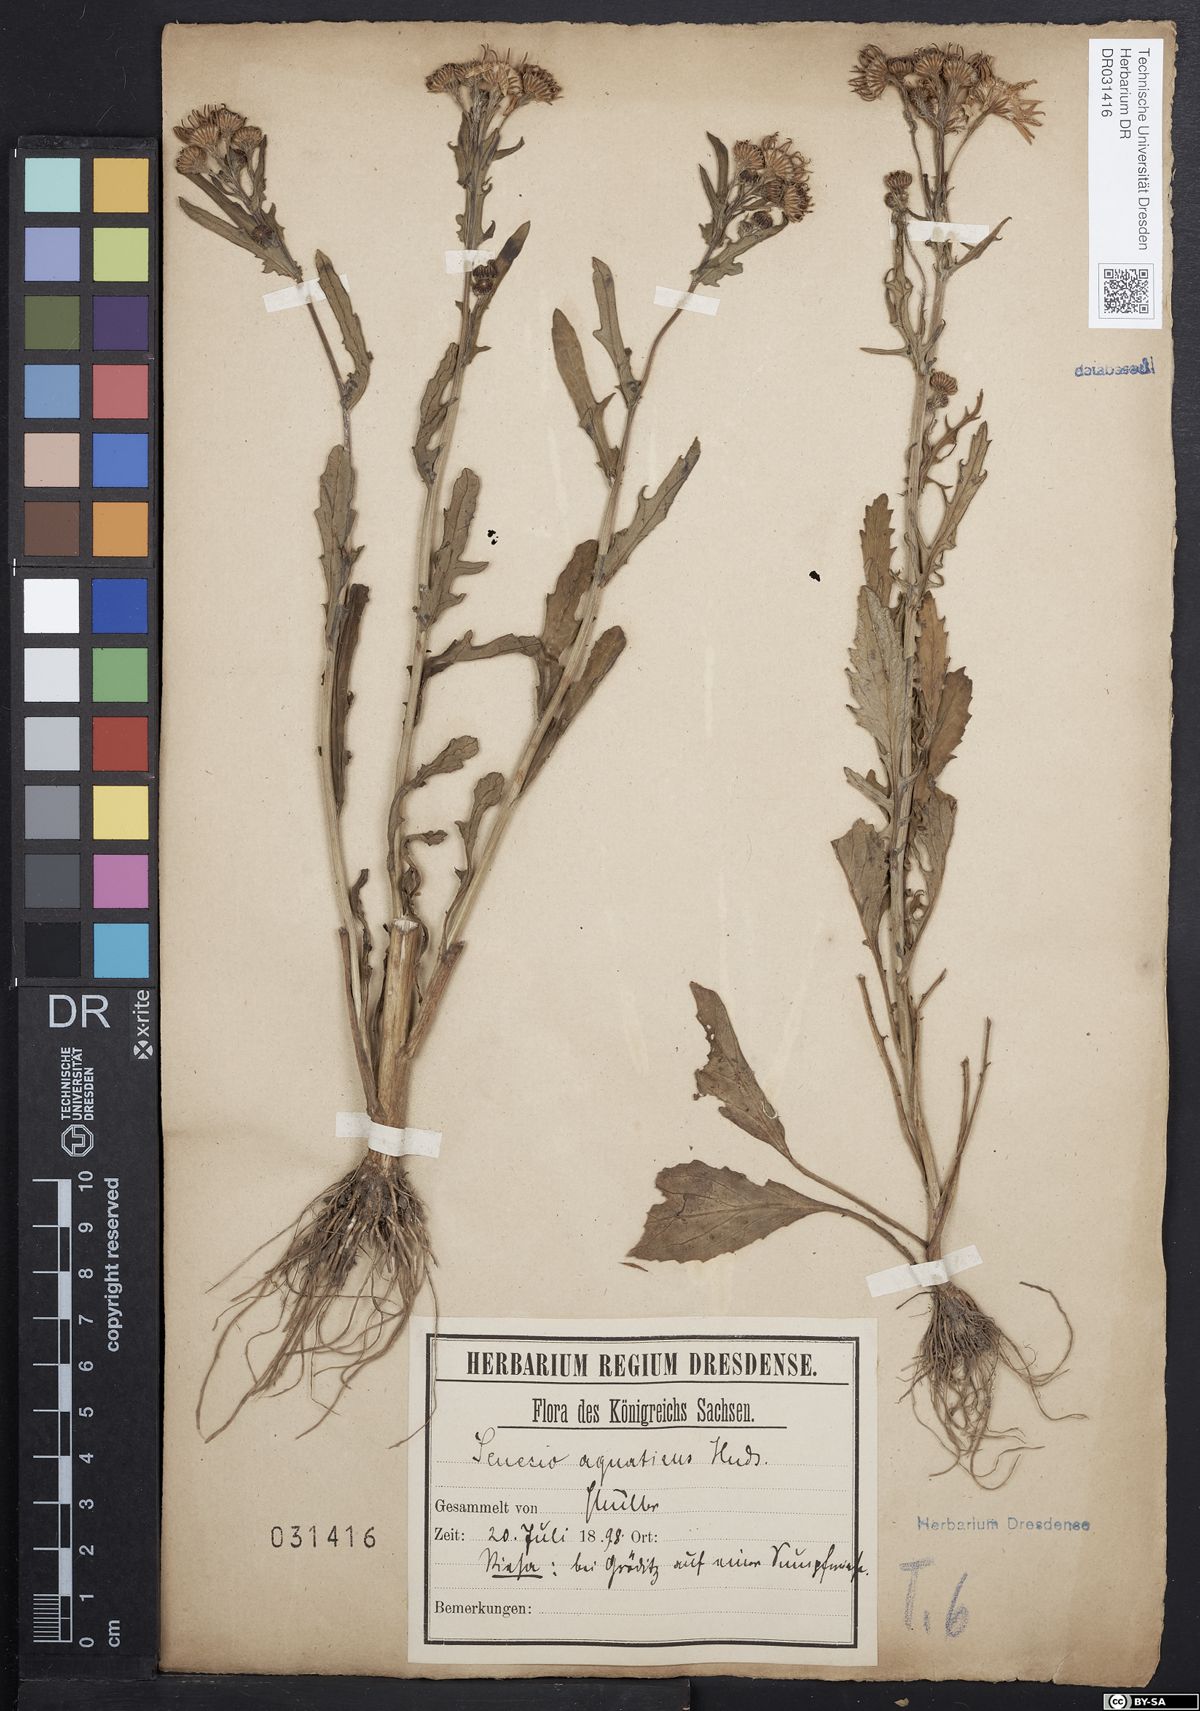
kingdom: Plantae
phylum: Tracheophyta
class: Magnoliopsida
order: Asterales
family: Asteraceae
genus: Jacobaea
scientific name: Jacobaea aquatica
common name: Water ragwort
